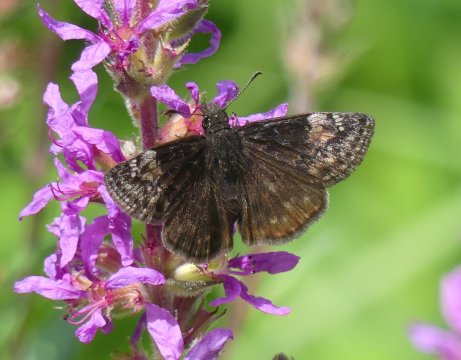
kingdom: Animalia
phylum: Arthropoda
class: Insecta
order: Lepidoptera
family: Hesperiidae
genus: Gesta
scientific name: Gesta
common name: Columbine Duskywing
